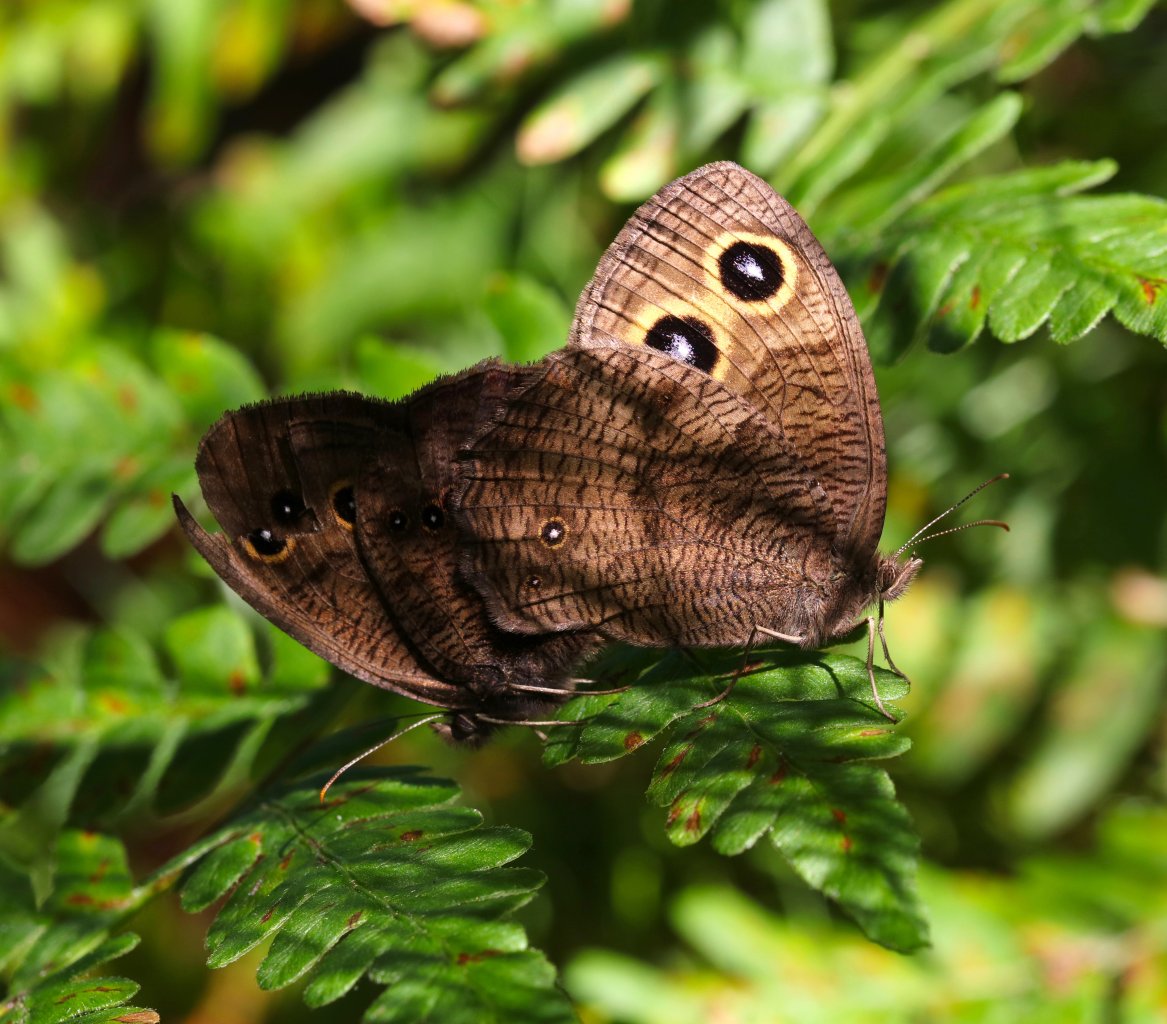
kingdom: Animalia
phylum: Arthropoda
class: Insecta
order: Lepidoptera
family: Nymphalidae
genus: Cercyonis
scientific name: Cercyonis pegala
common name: Common Wood-Nymph
